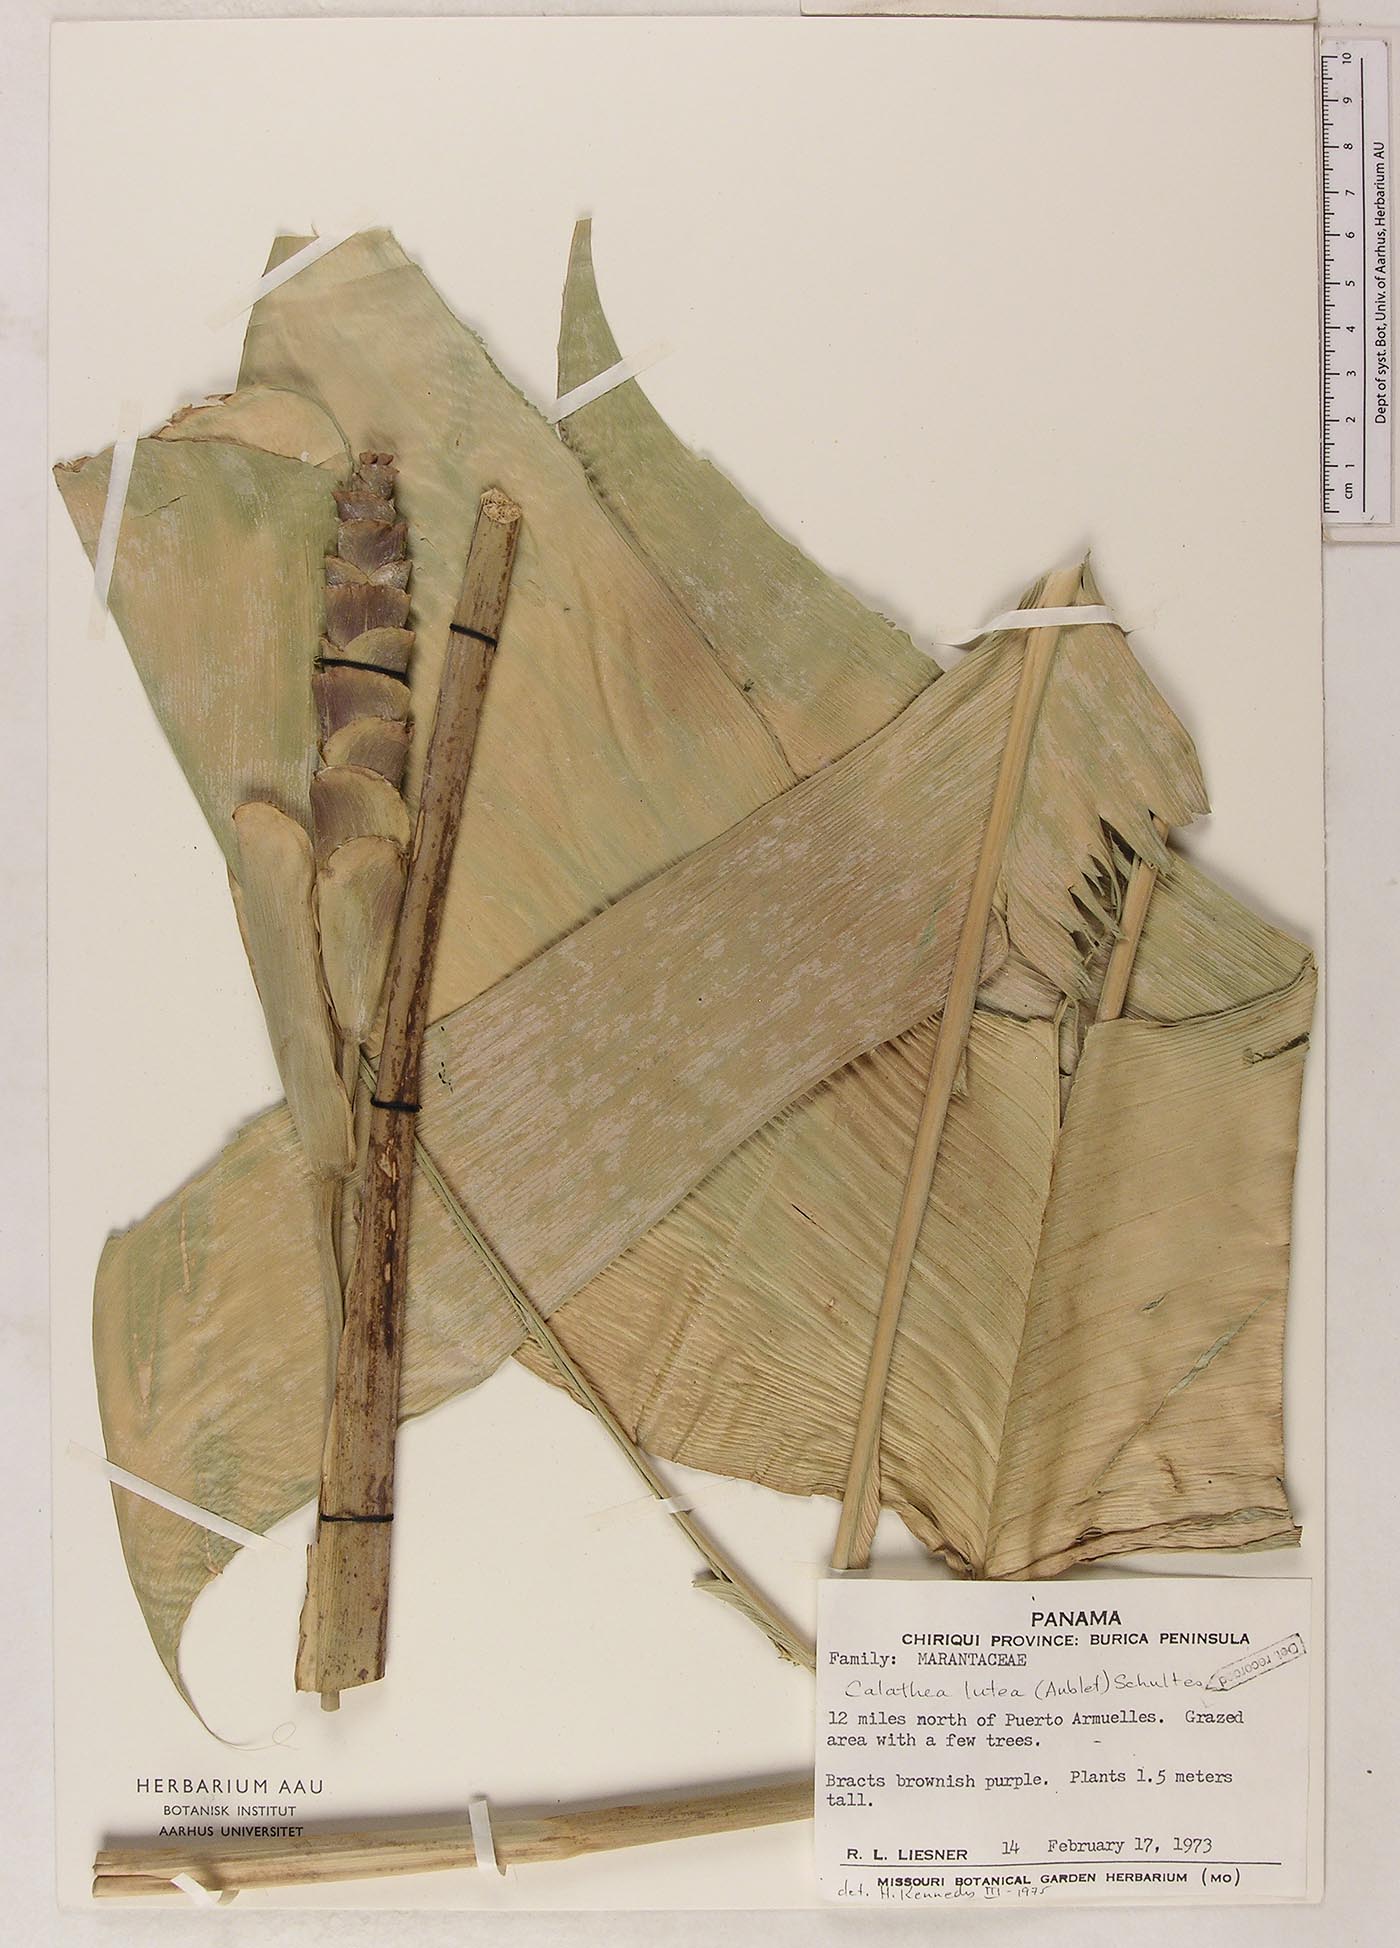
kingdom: Plantae
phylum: Tracheophyta
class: Liliopsida
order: Zingiberales
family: Marantaceae
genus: Calathea
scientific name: Calathea lutea
